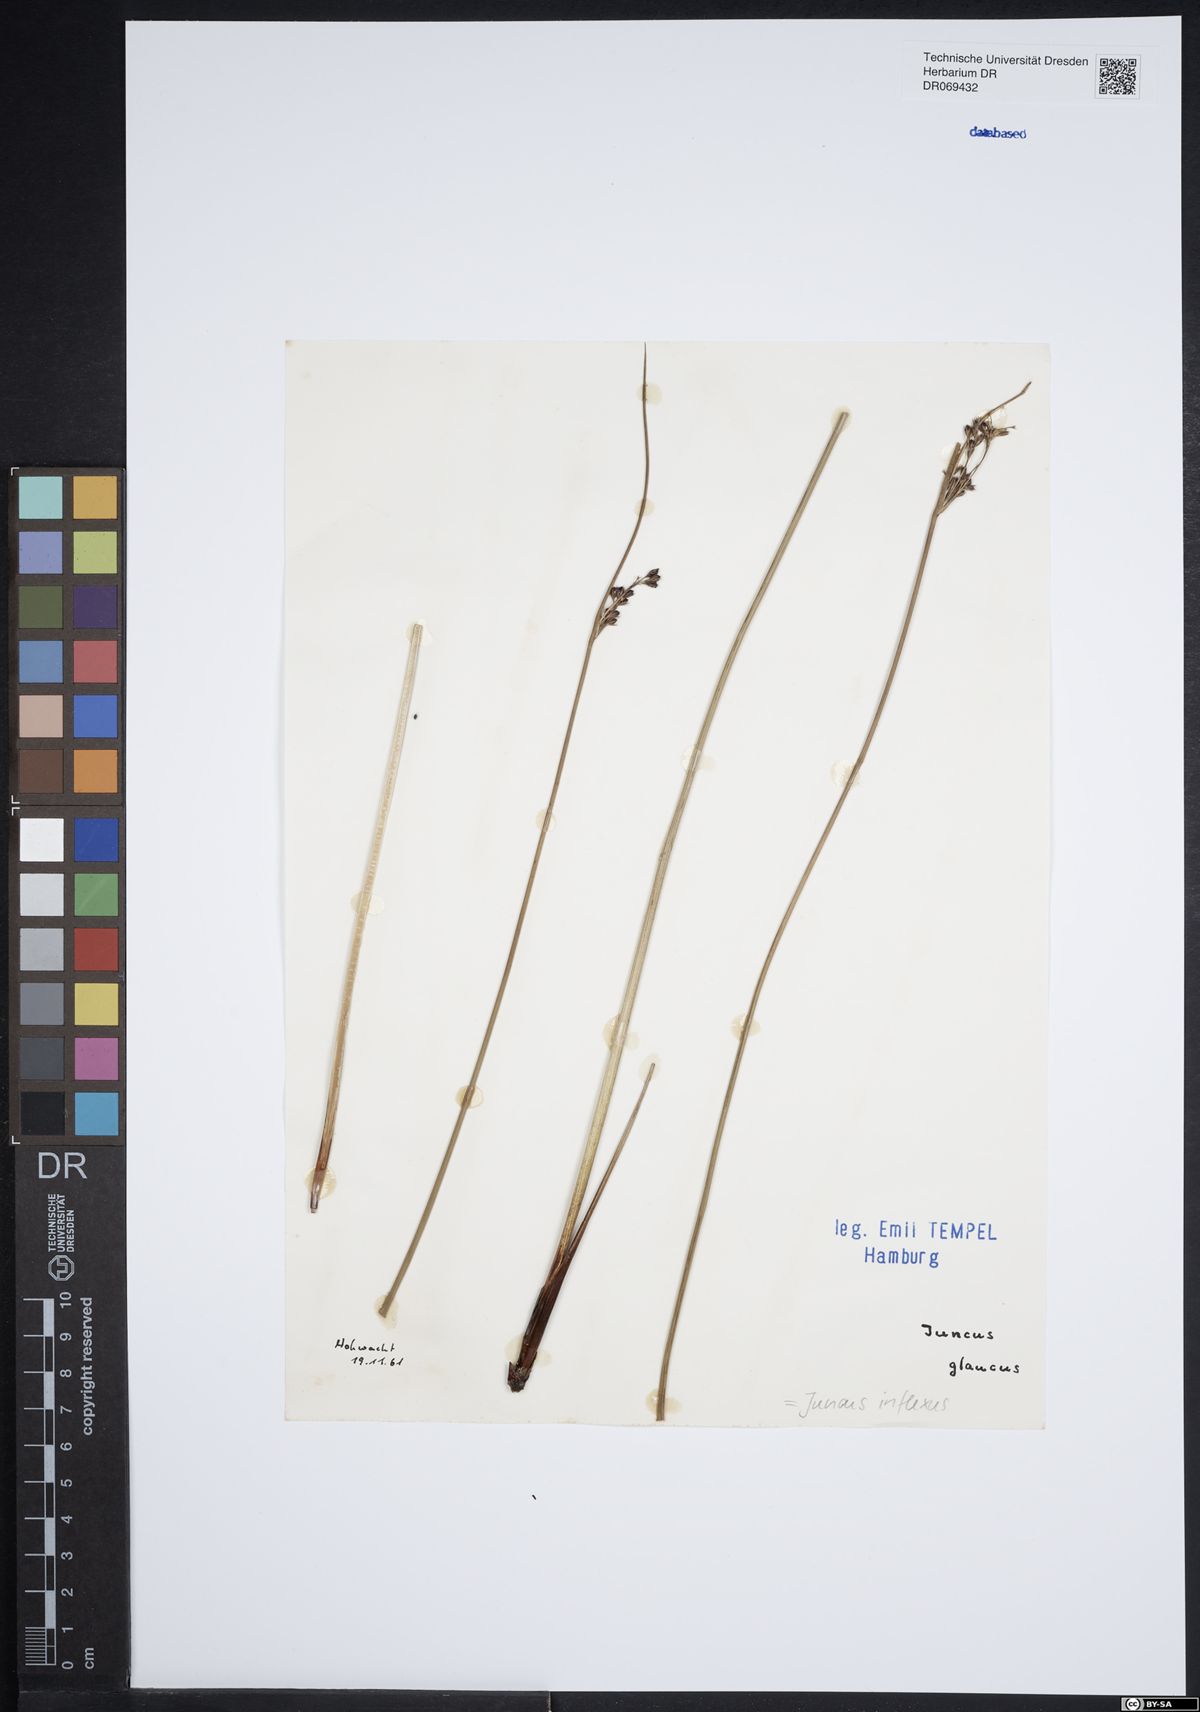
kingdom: Plantae
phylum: Tracheophyta
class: Liliopsida
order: Poales
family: Juncaceae
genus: Juncus
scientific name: Juncus inflexus
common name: Hard rush
